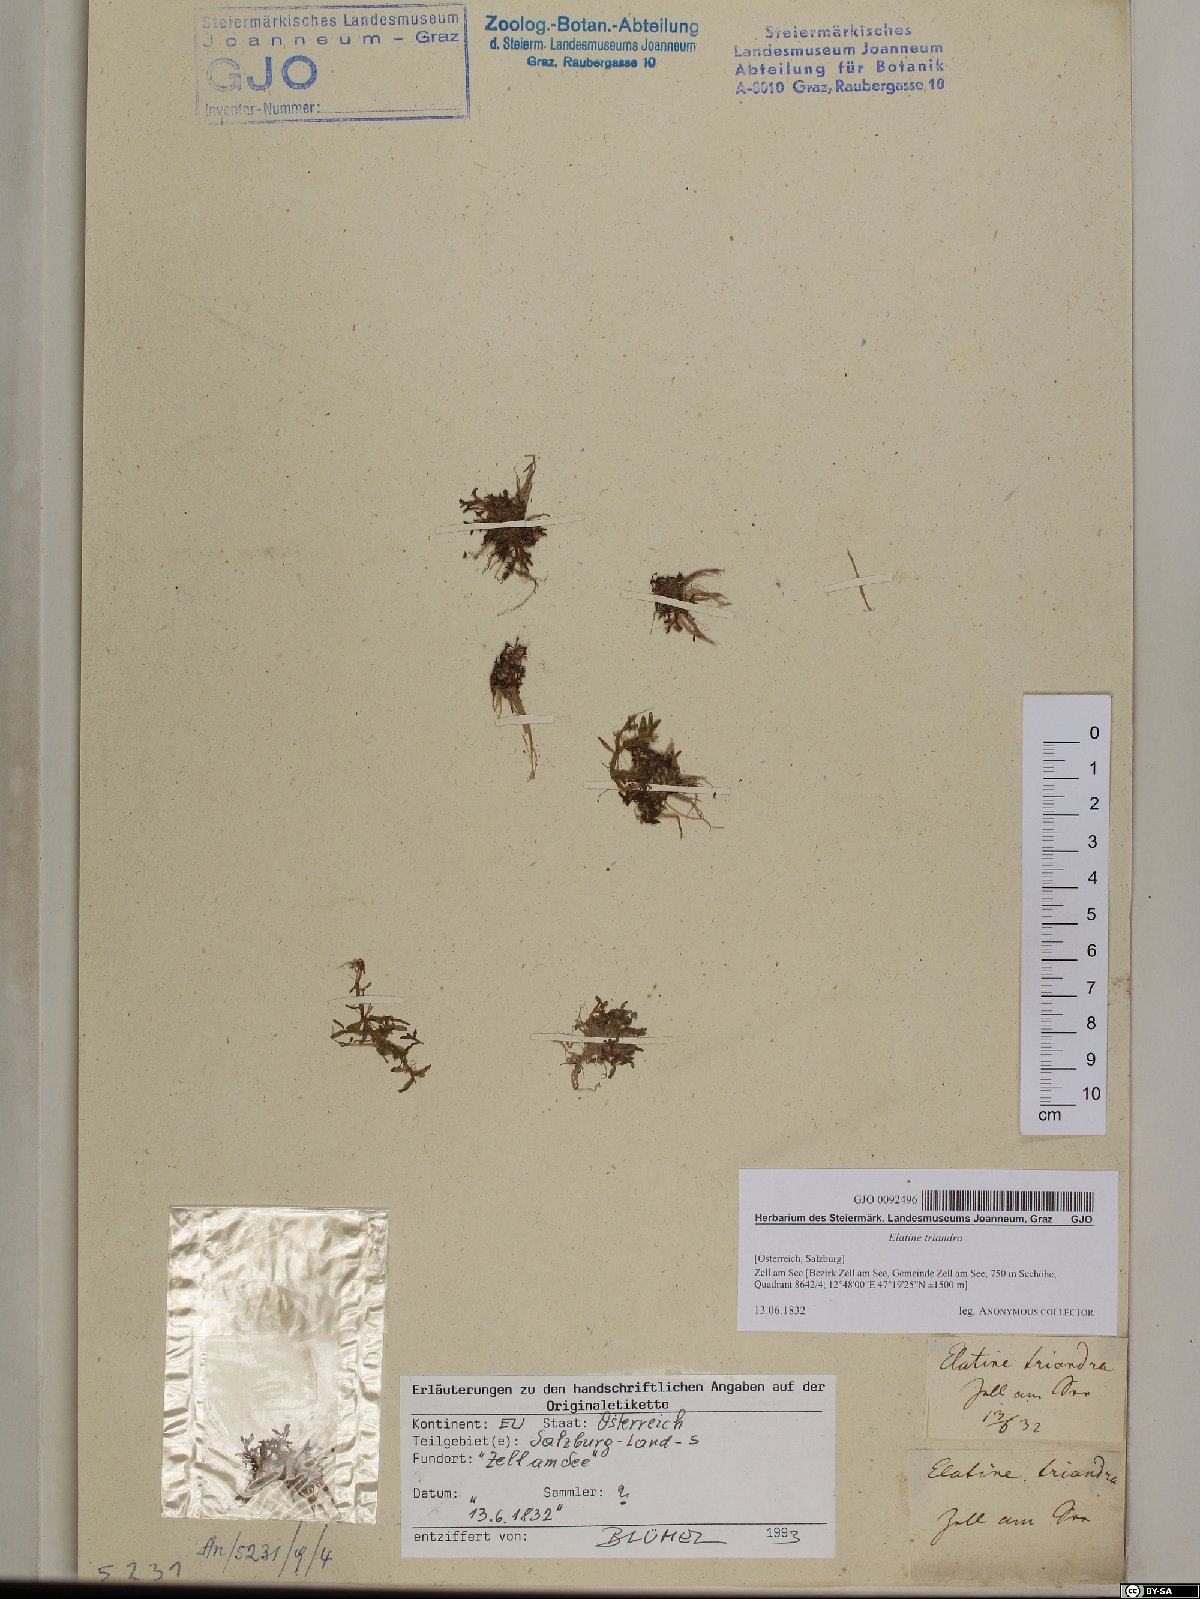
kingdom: Plantae
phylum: Tracheophyta
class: Magnoliopsida
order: Malpighiales
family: Elatinaceae
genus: Elatine
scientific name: Elatine triandra
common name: Three-stamened waterwort
